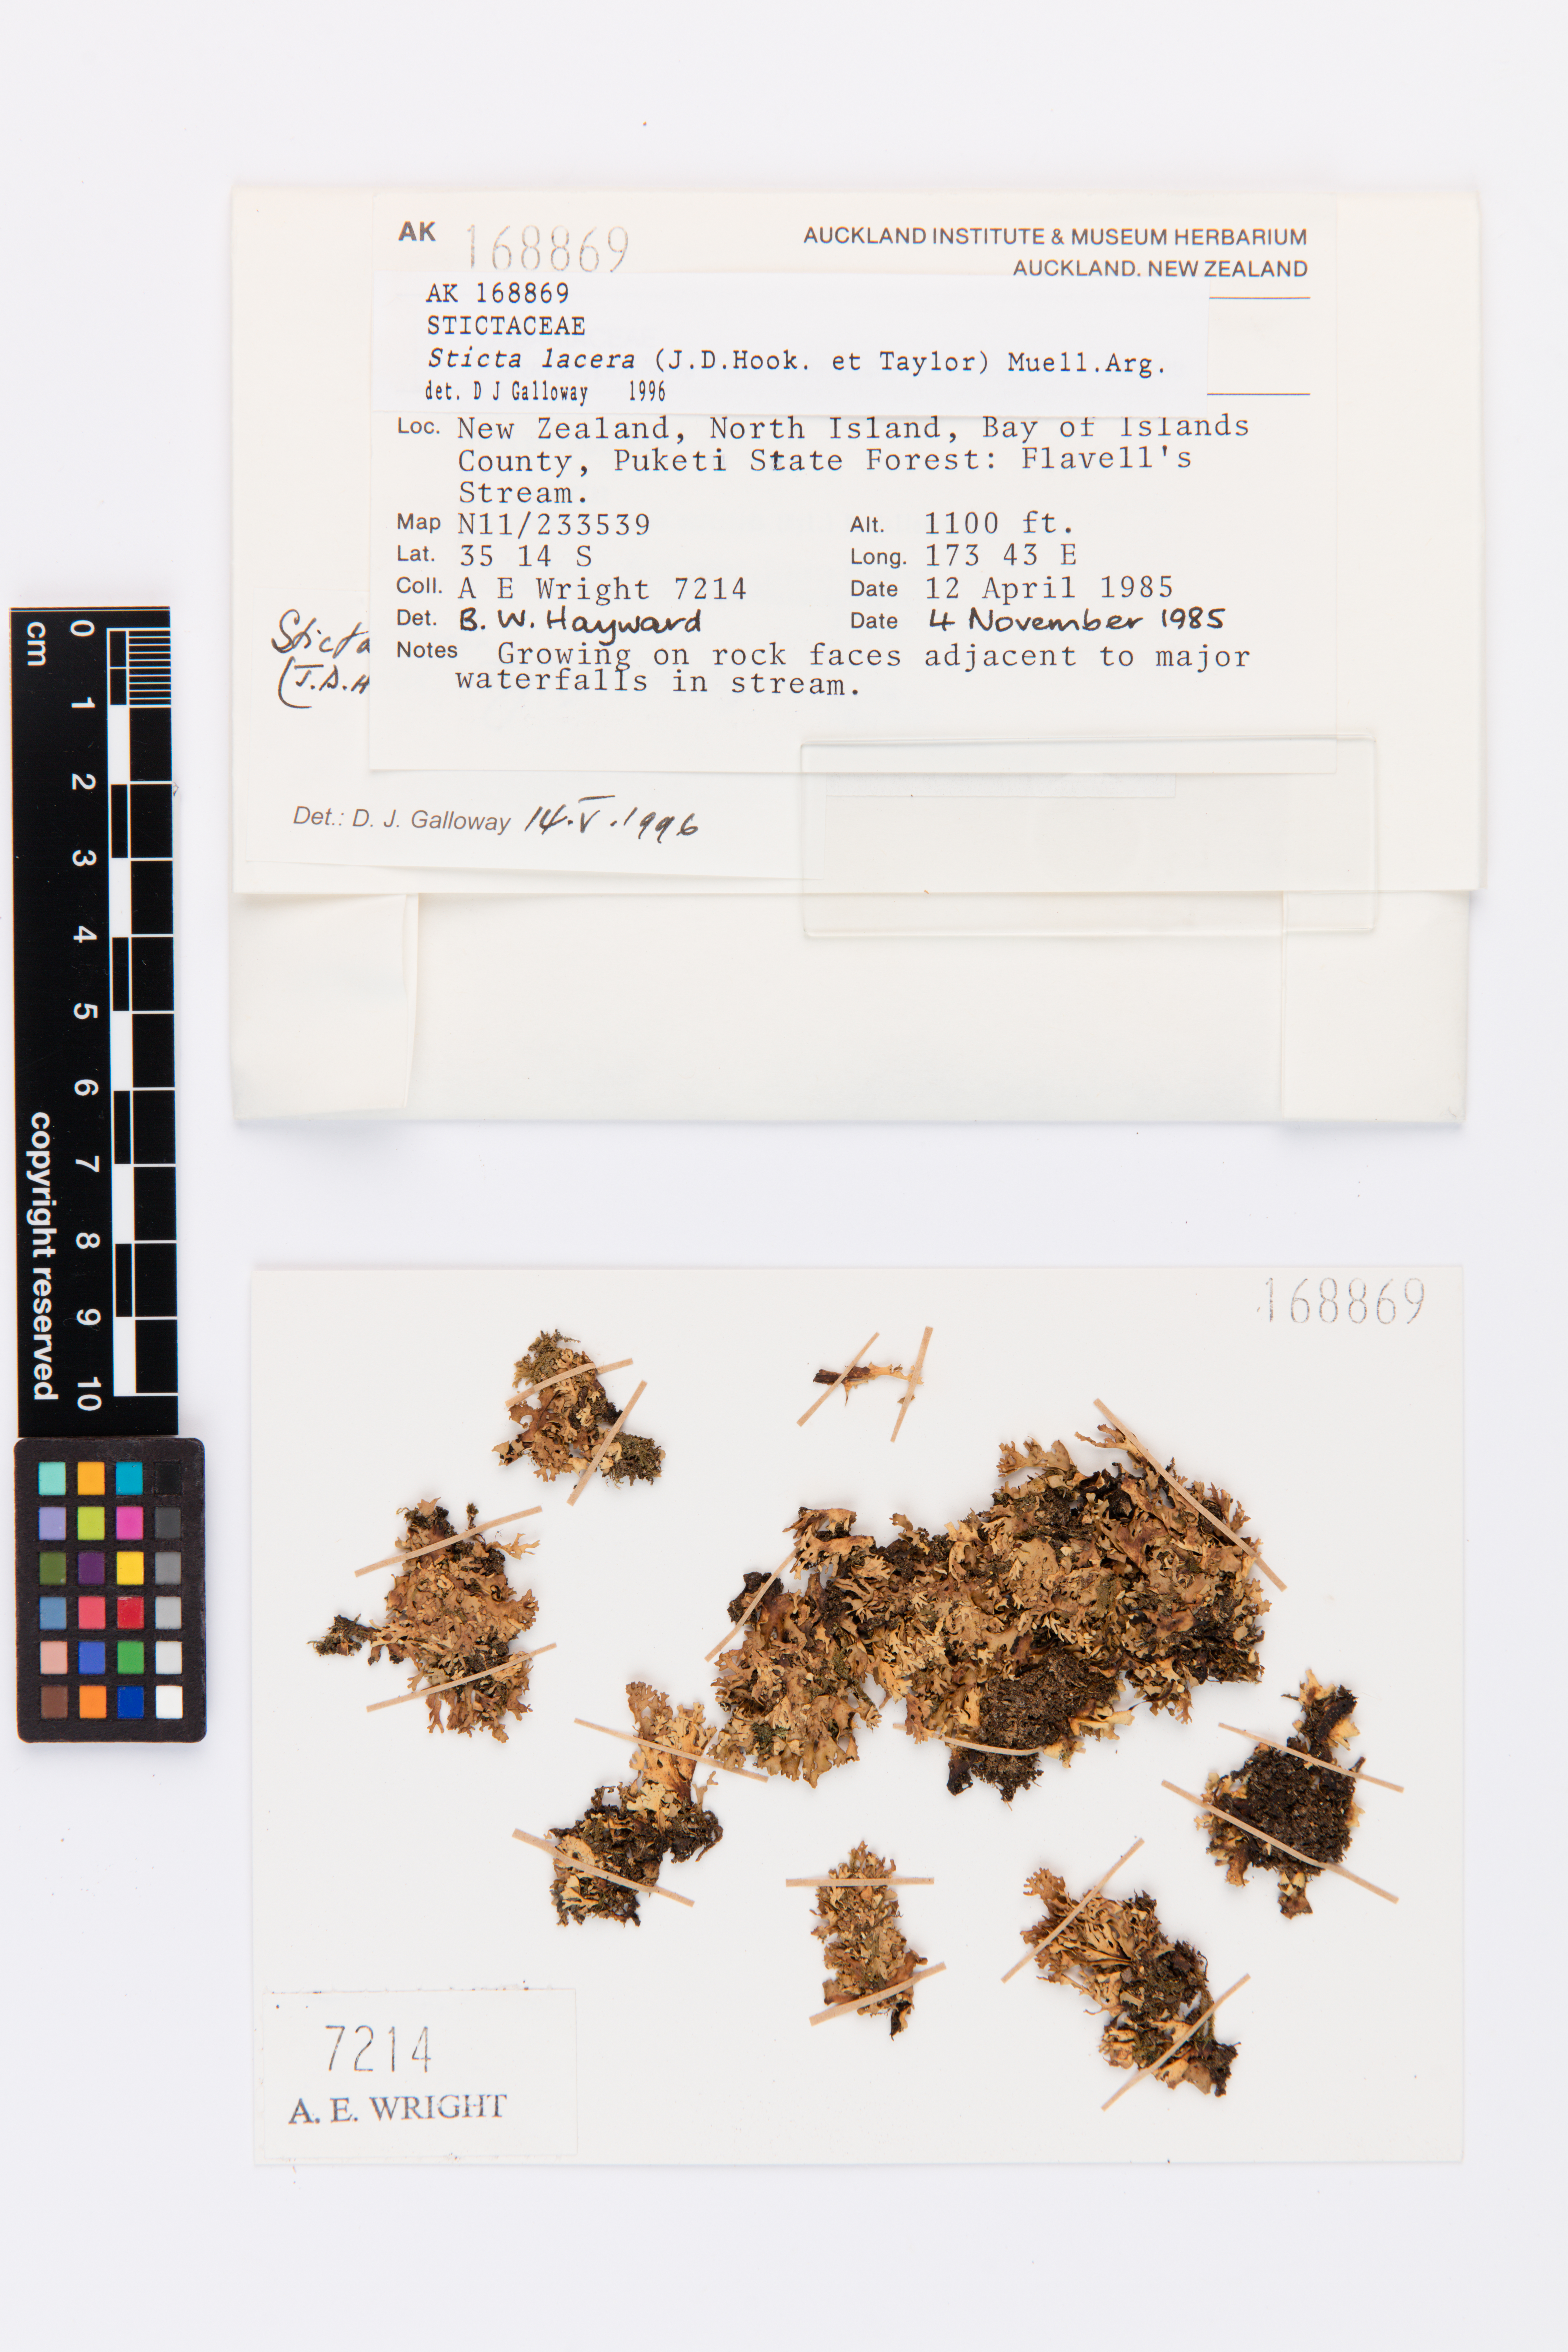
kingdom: Fungi
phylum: Ascomycota
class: Lecanoromycetes
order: Peltigerales
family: Lobariaceae
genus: Sticta
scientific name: Sticta
